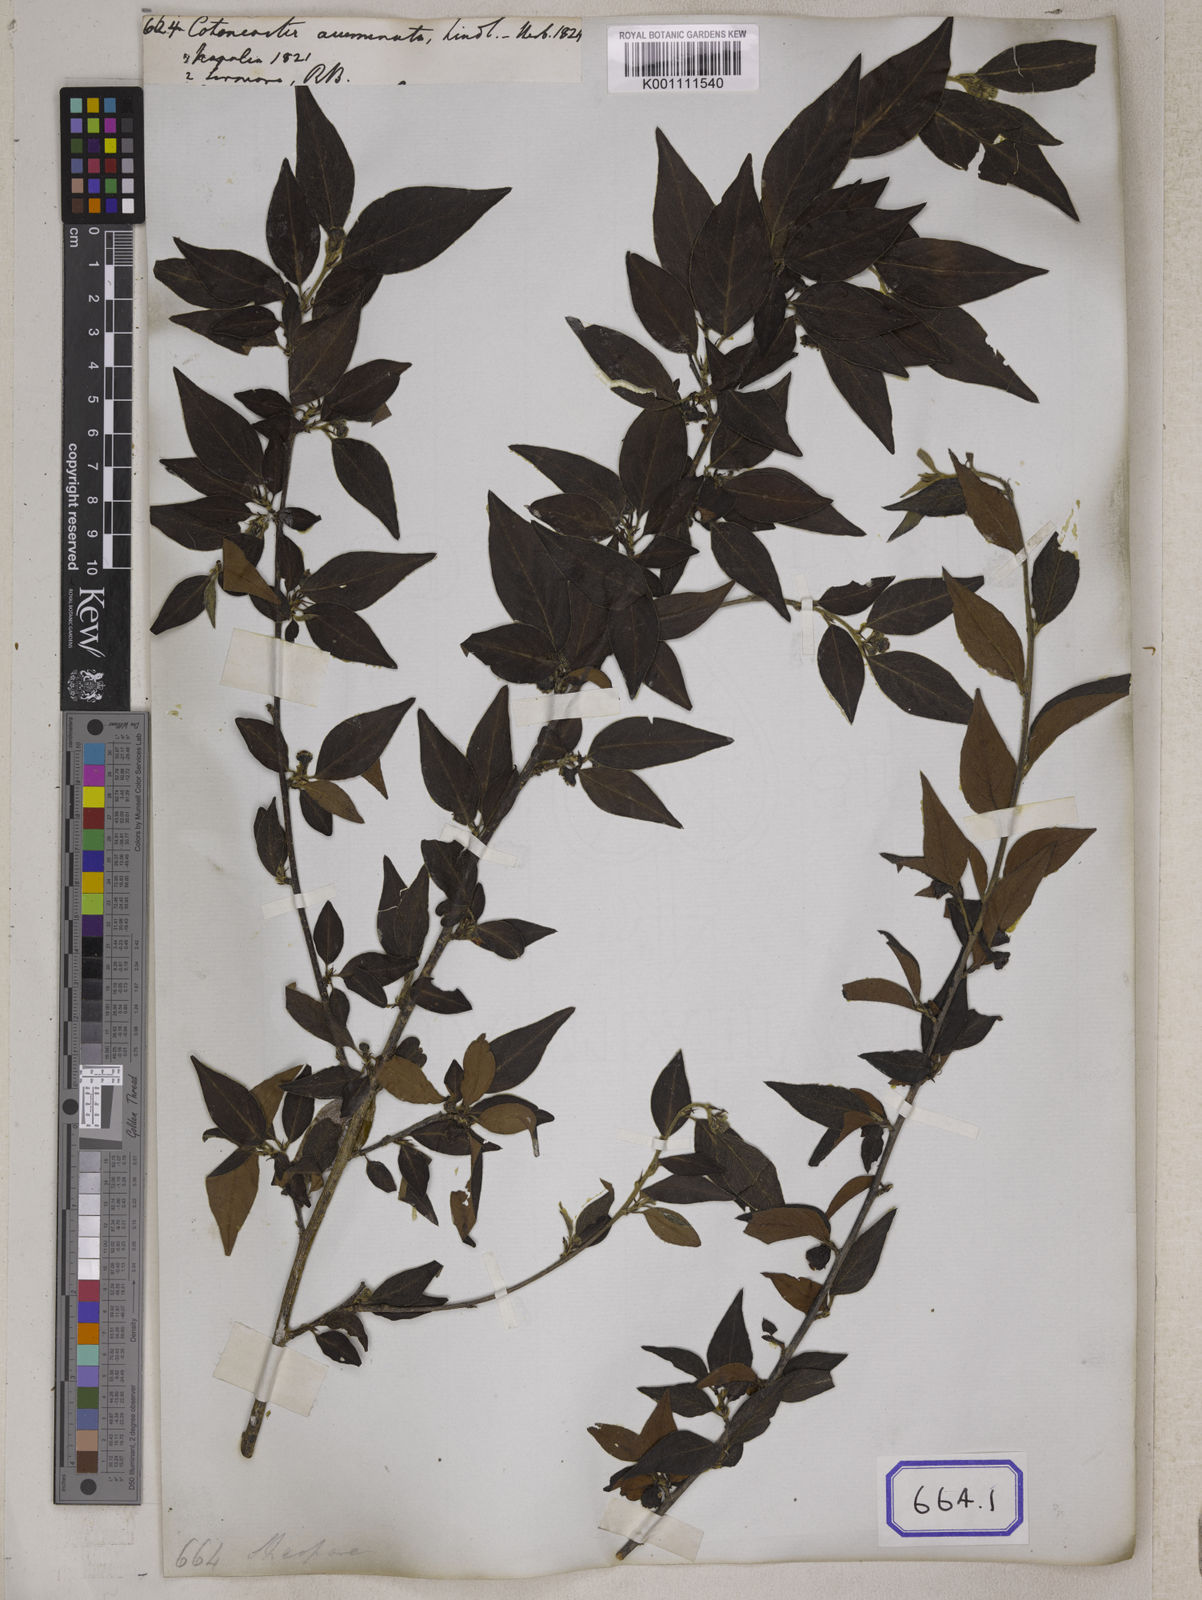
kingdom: Plantae
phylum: Tracheophyta
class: Magnoliopsida
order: Rosales
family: Rosaceae
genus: Cotoneaster
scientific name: Cotoneaster acuminatus
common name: Acuminate cotoneaster
